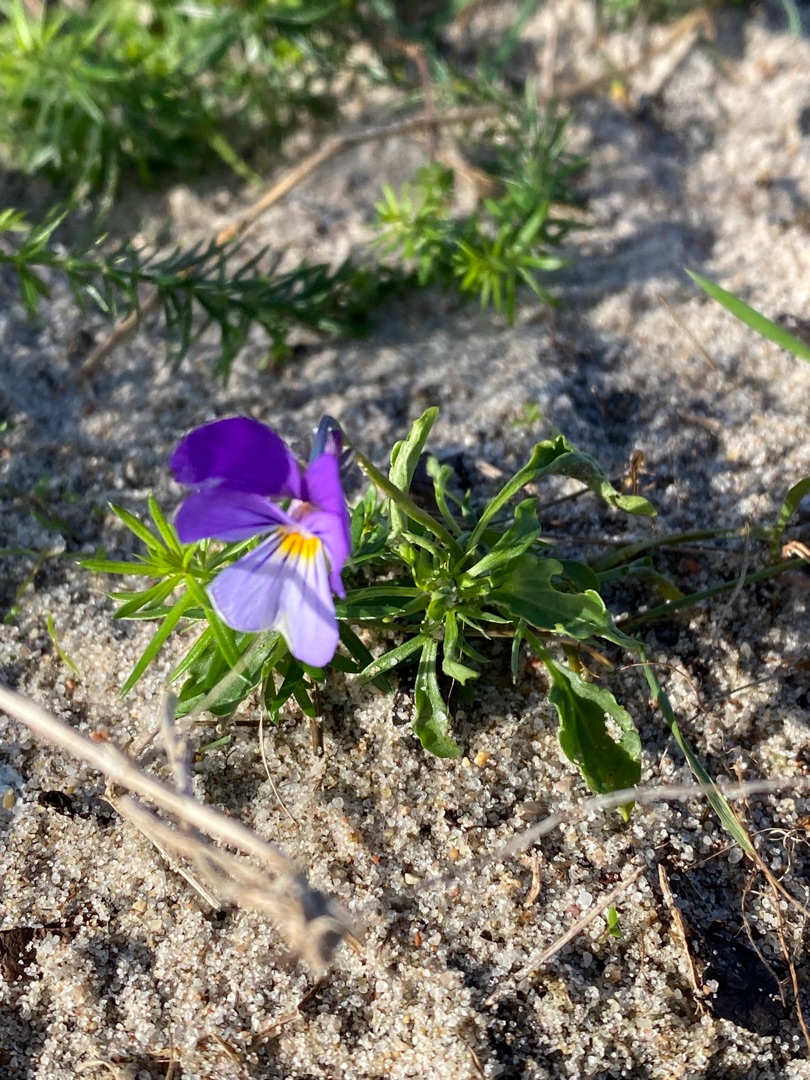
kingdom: Plantae
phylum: Tracheophyta
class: Magnoliopsida
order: Malpighiales
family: Violaceae
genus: Viola
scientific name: Viola tricolor
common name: Klit-stedmoderblomst
